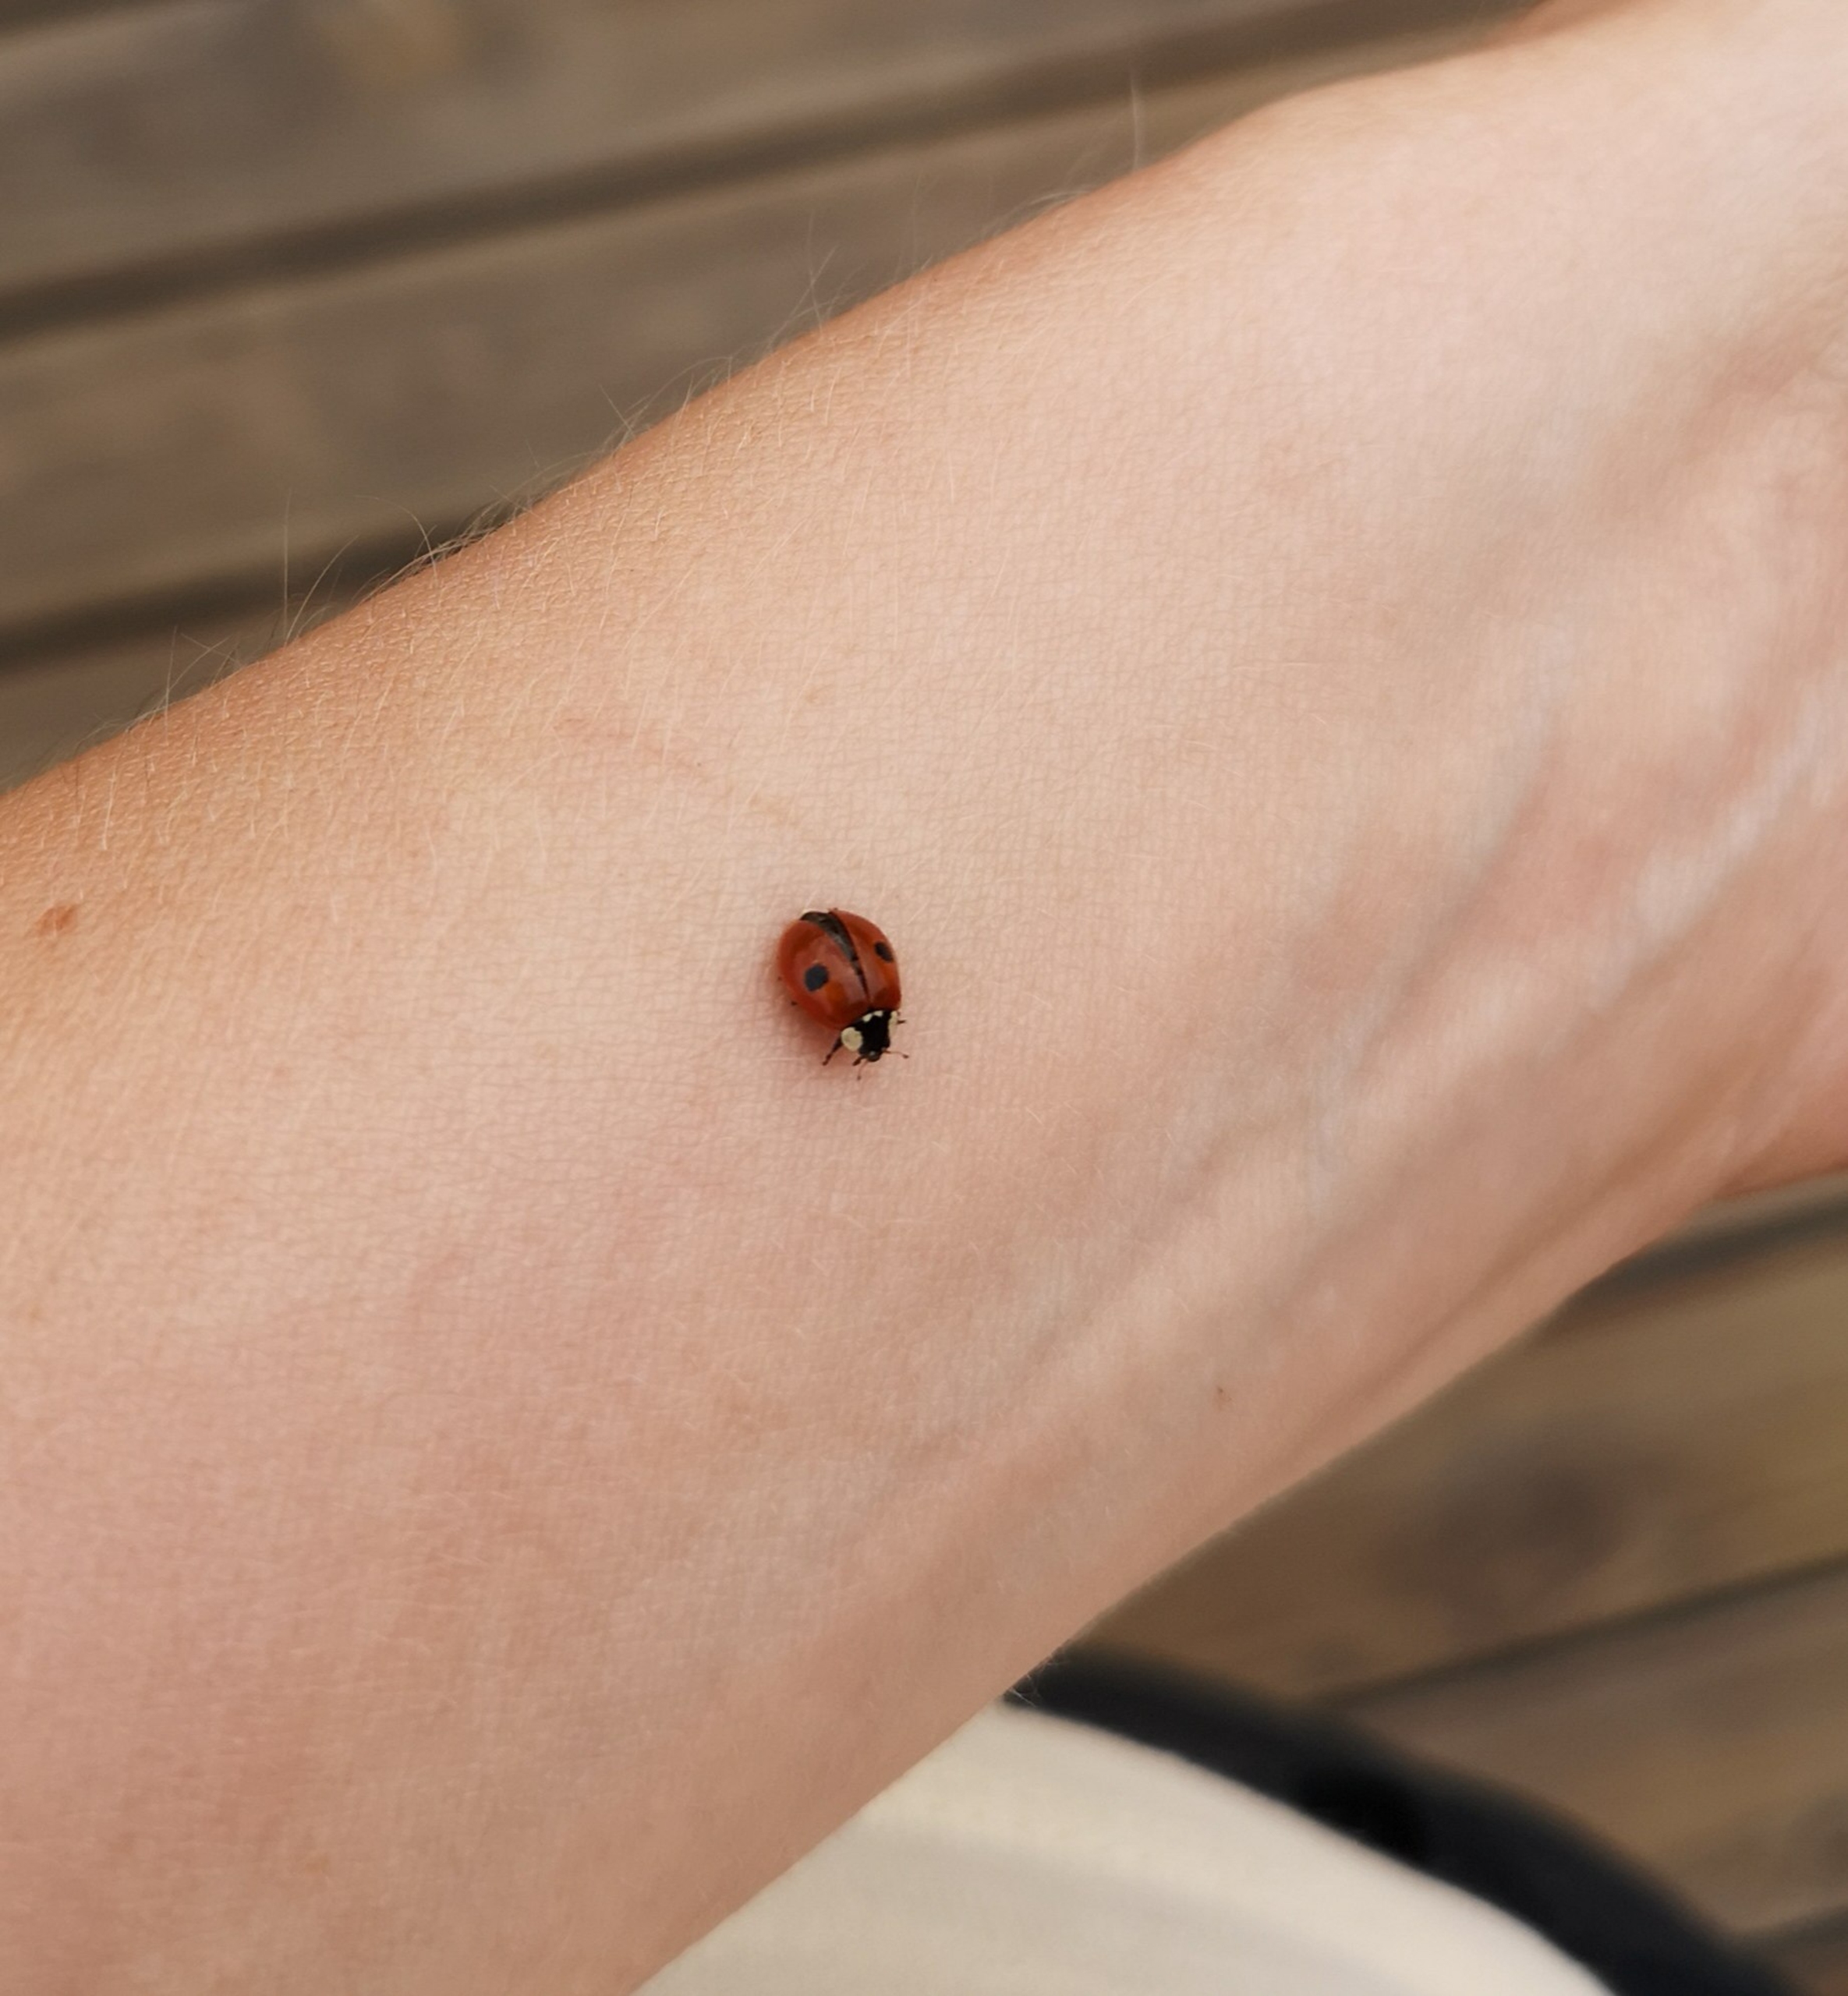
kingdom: Animalia
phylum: Arthropoda
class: Insecta
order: Coleoptera
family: Coccinellidae
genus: Adalia
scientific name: Adalia bipunctata
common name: Toplettet mariehøne
